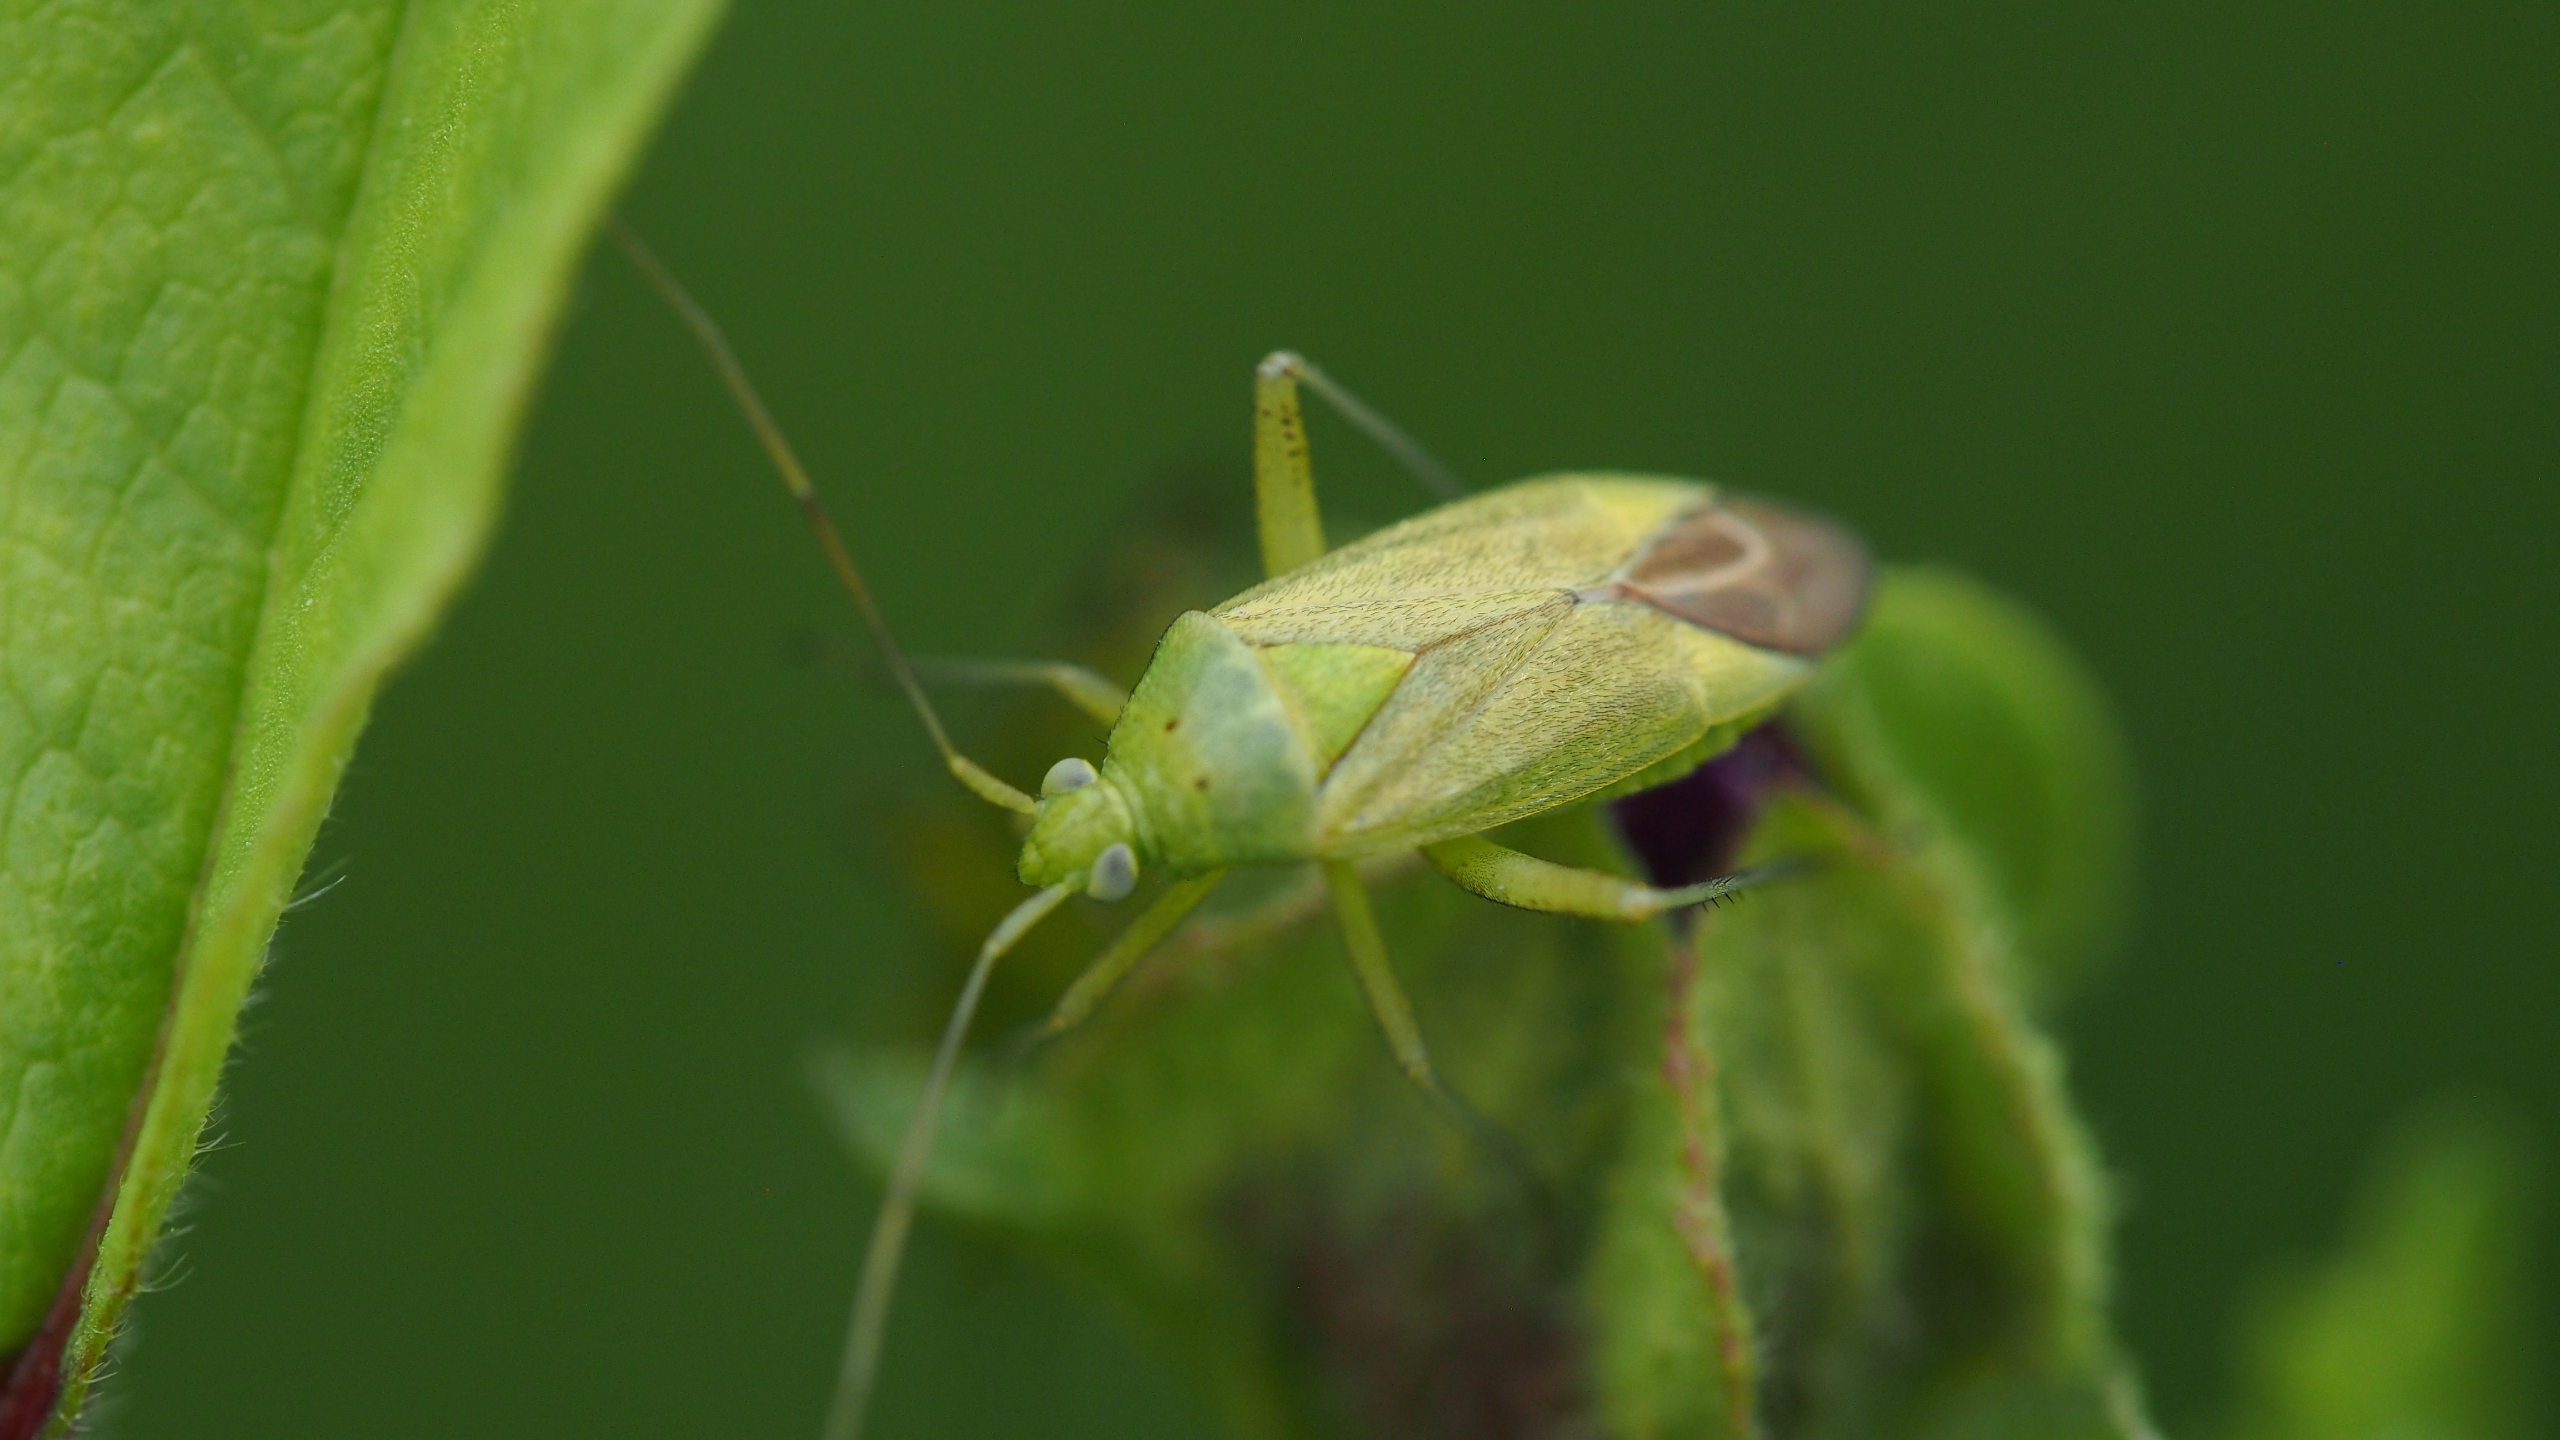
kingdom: Animalia
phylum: Arthropoda
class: Insecta
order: Hemiptera
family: Miridae
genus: Closterotomus
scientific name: Closterotomus norvegicus
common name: Toplettet bederoetæge
